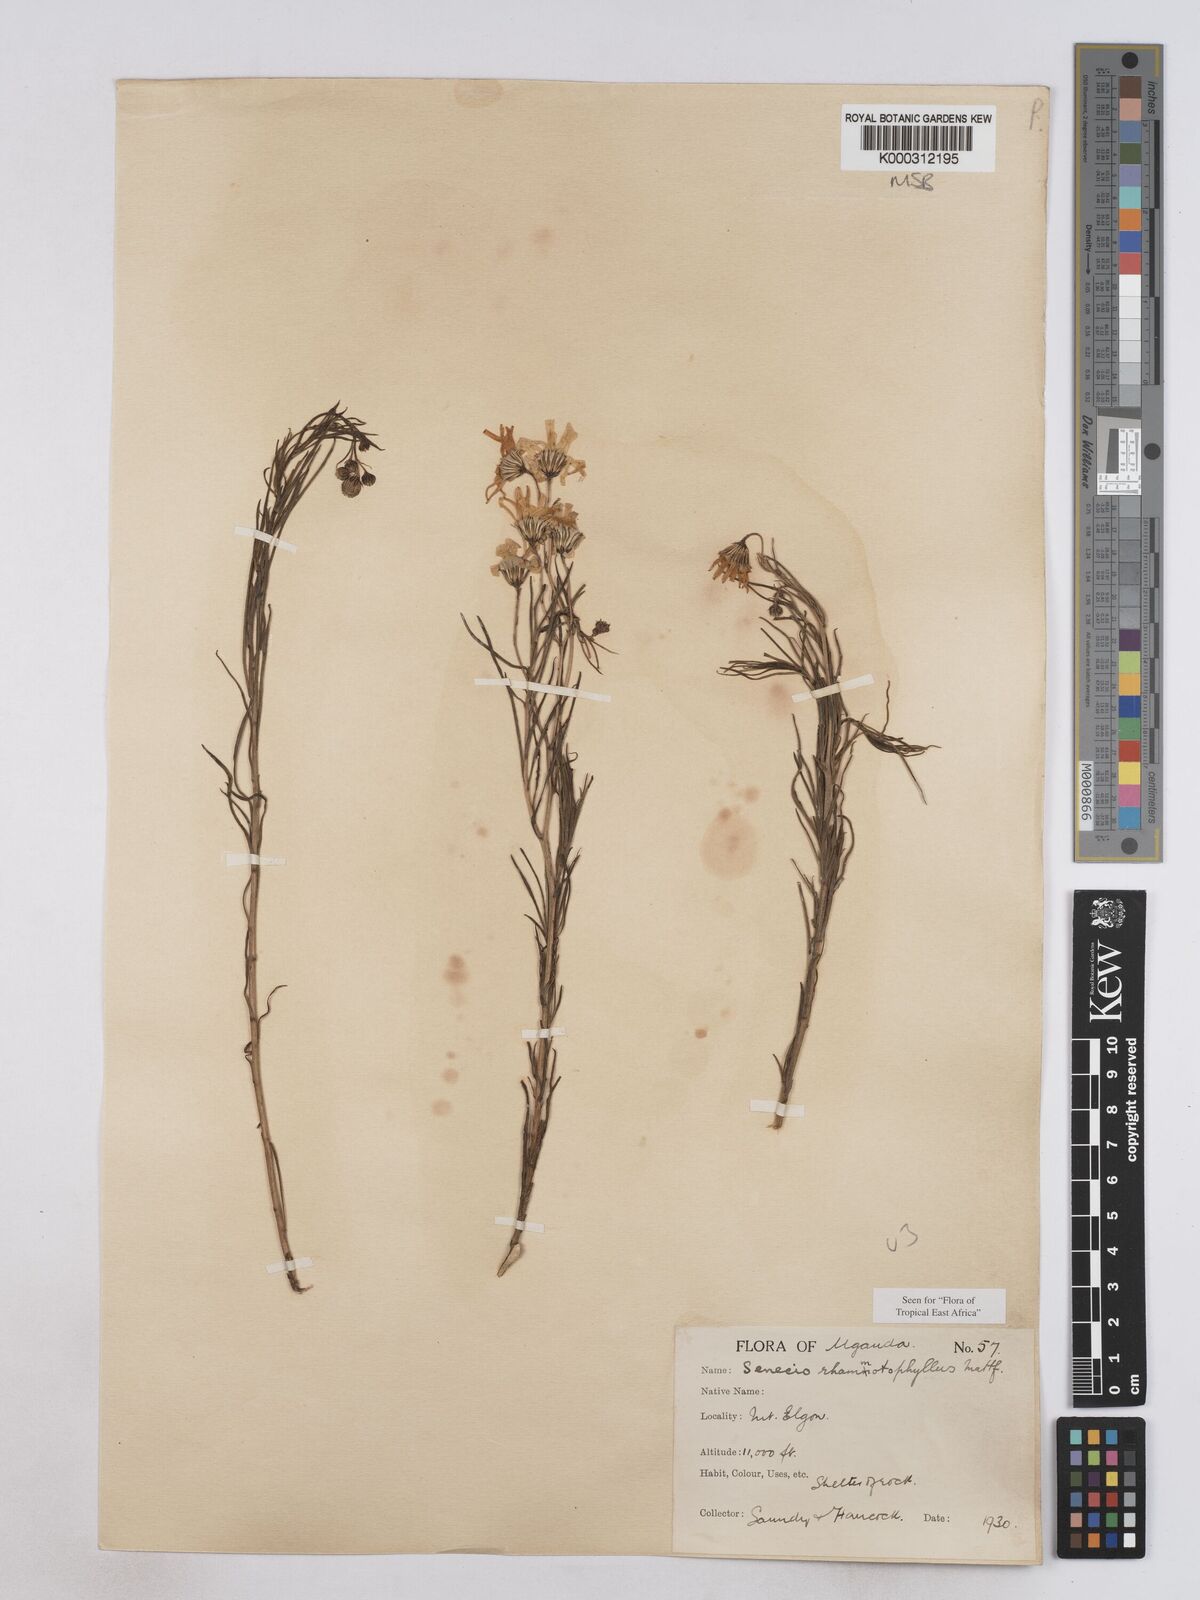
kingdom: Plantae
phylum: Tracheophyta
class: Magnoliopsida
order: Asterales
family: Asteraceae
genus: Senecio
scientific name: Senecio rhammatophyllus
